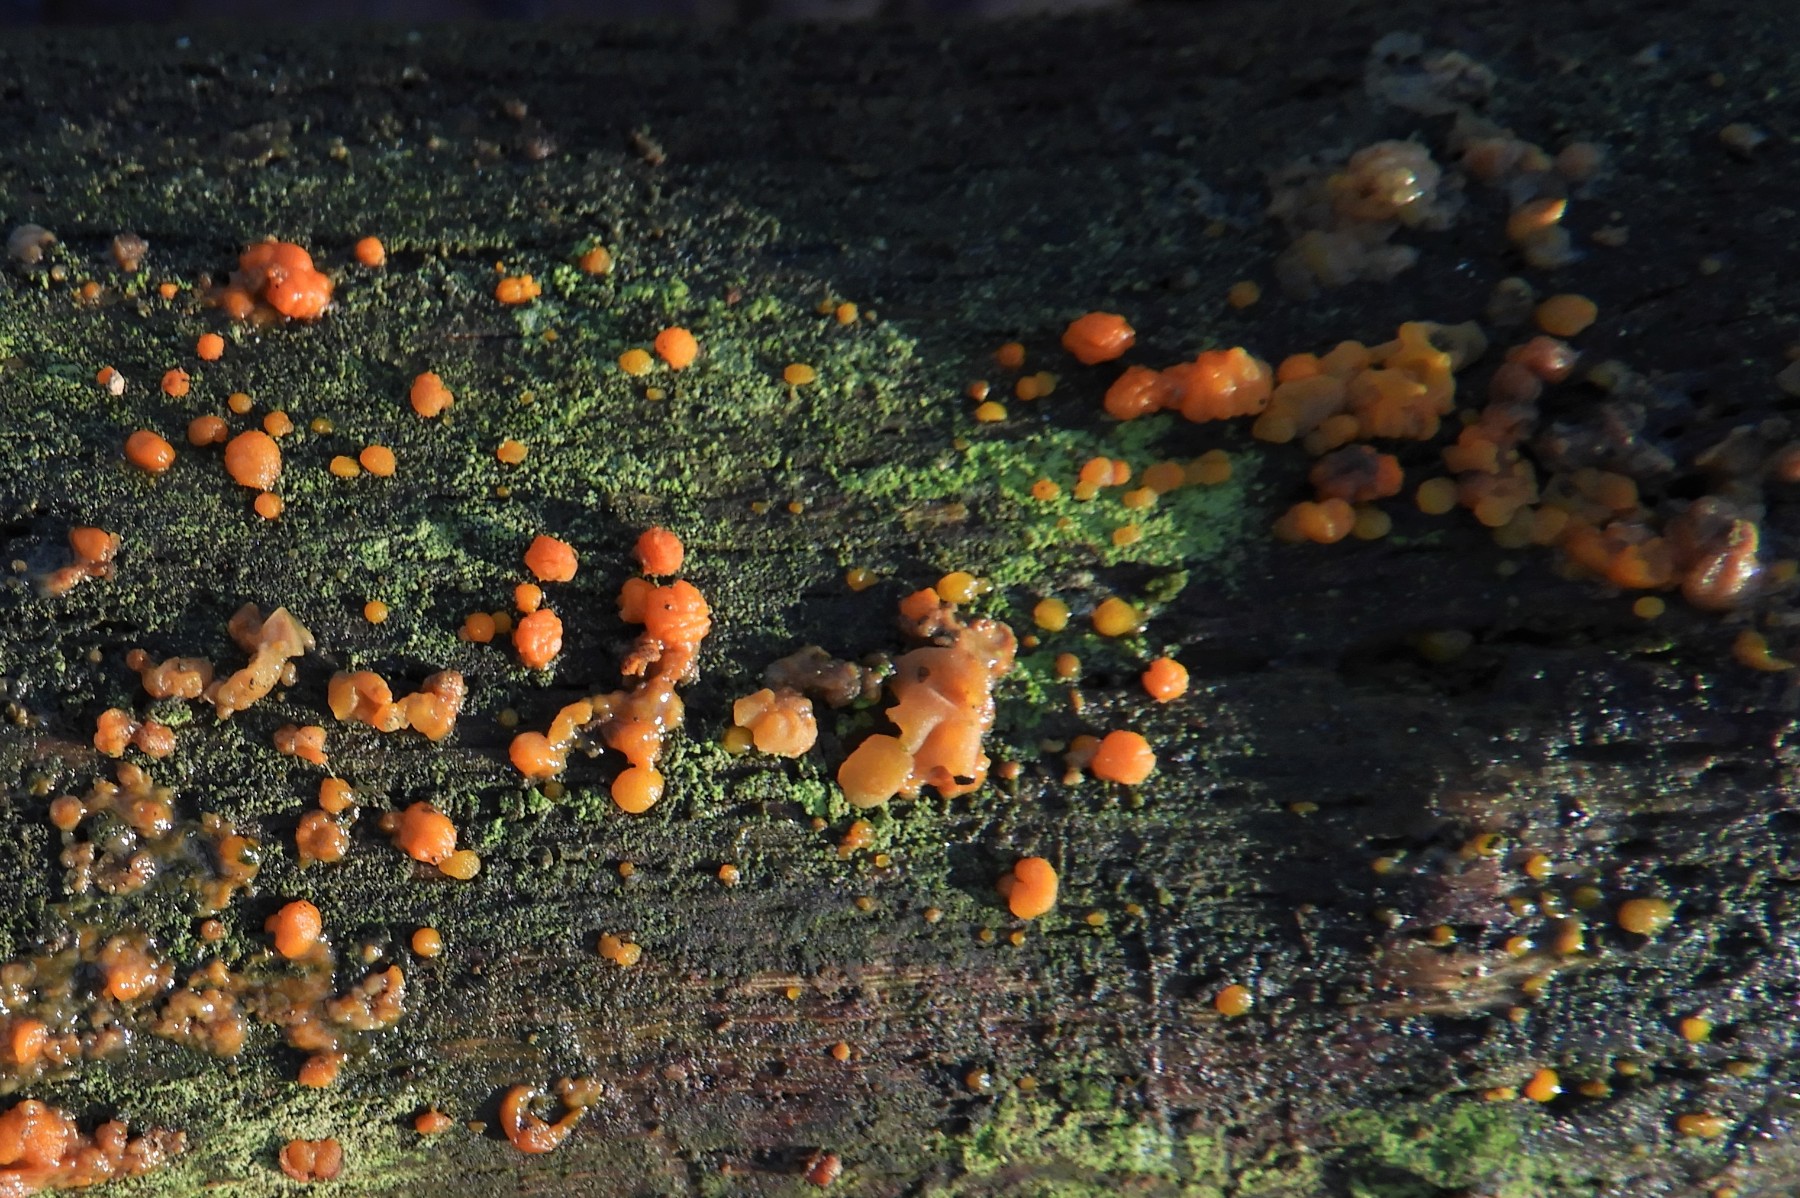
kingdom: Fungi
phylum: Basidiomycota
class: Dacrymycetes
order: Dacrymycetales
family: Dacrymycetaceae
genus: Dacrymyces
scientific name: Dacrymyces stillatus
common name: almindelig tåresvamp
